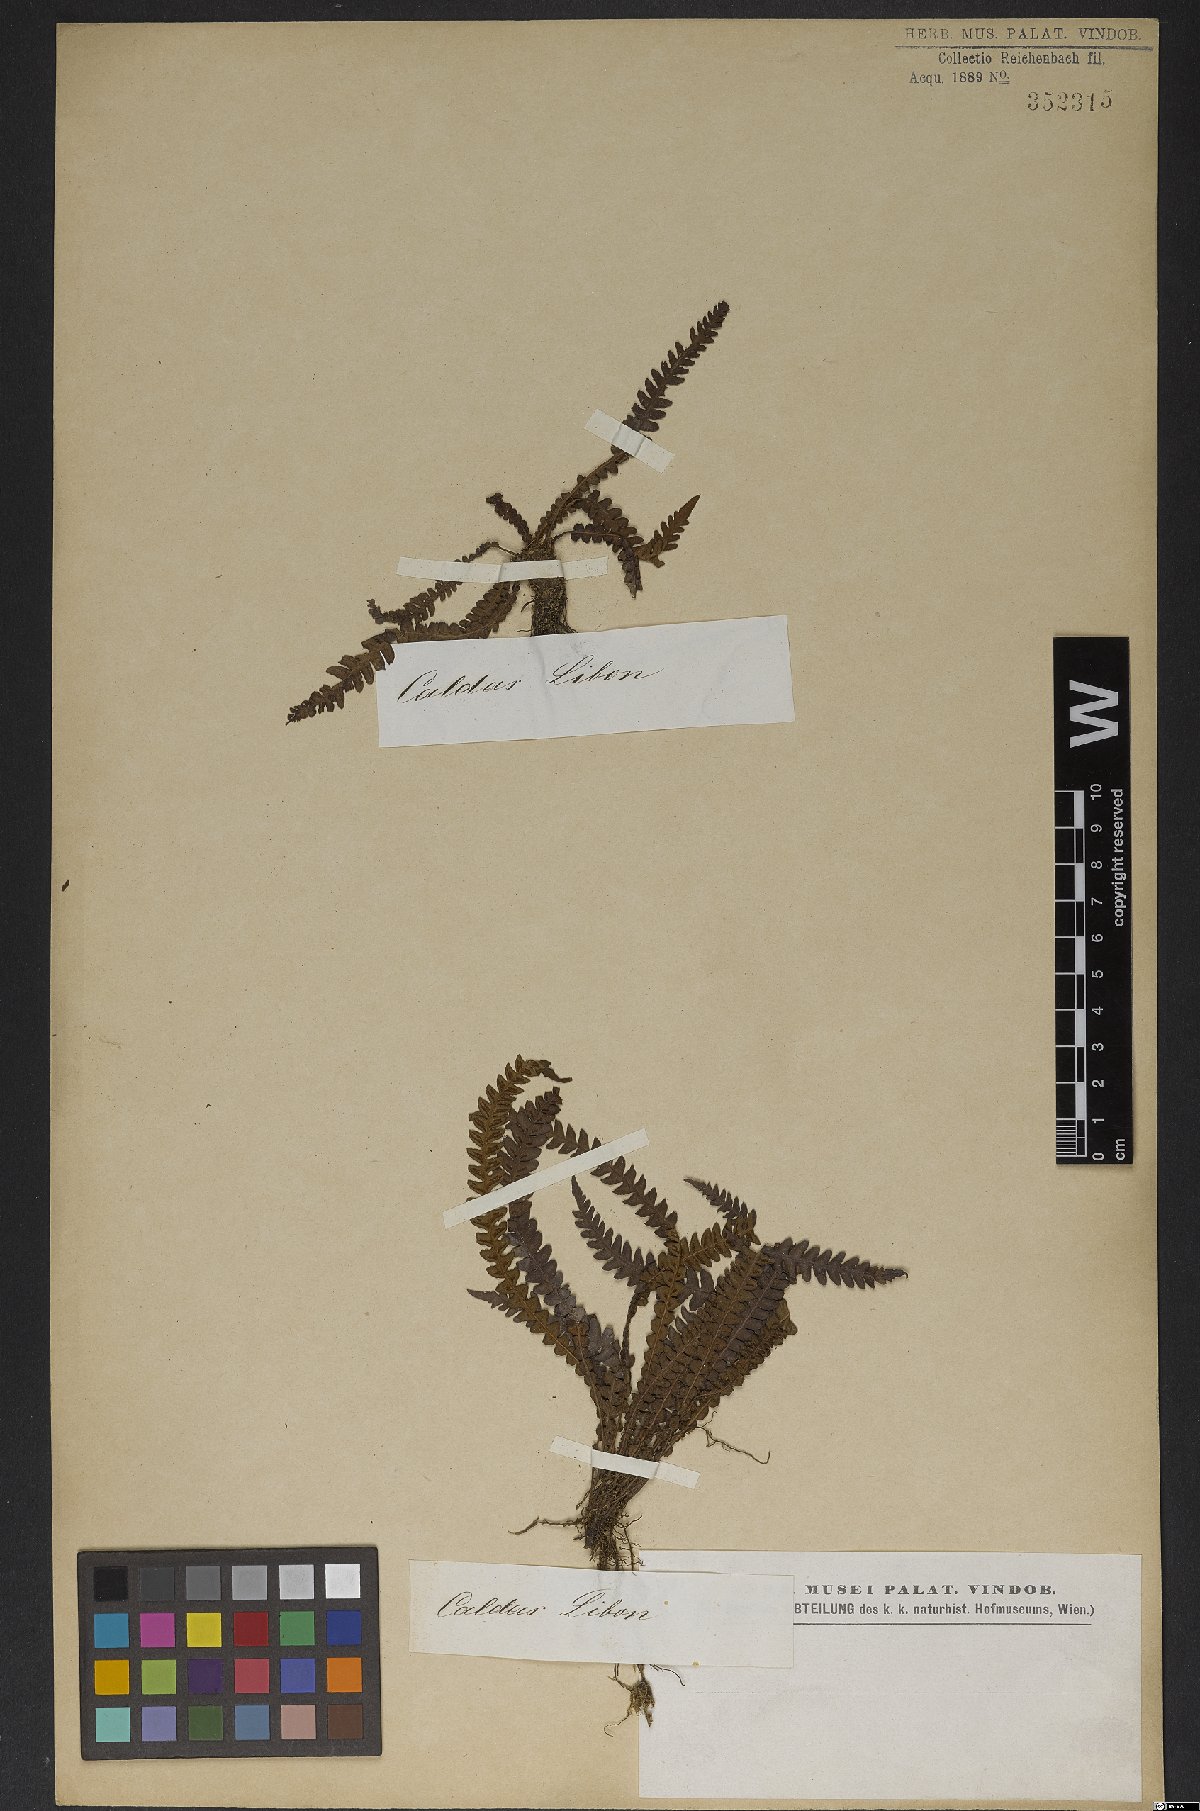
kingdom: Plantae
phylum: Tracheophyta
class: Polypodiopsida
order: Polypodiales
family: Blechnaceae
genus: Blechnum
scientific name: Blechnum
